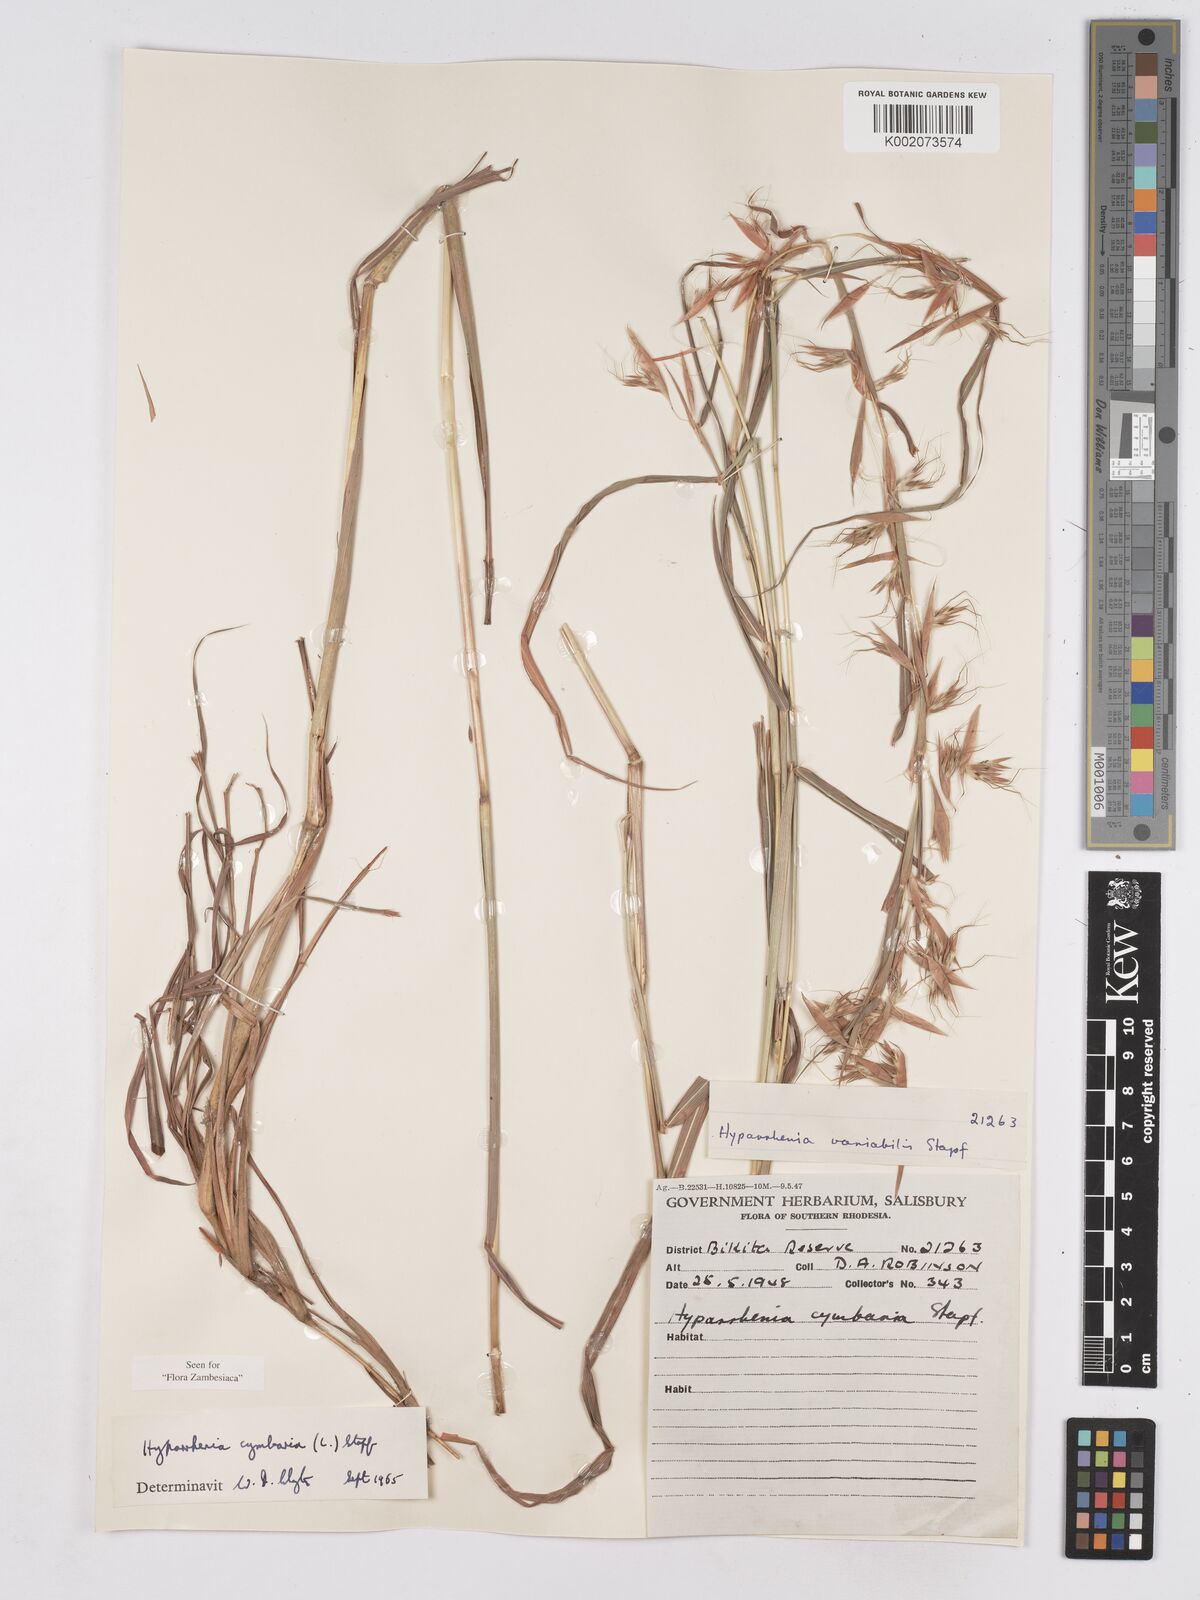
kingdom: Plantae
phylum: Tracheophyta
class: Liliopsida
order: Poales
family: Poaceae
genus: Hyparrhenia
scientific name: Hyparrhenia cymbaria
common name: Boat thatching grass
